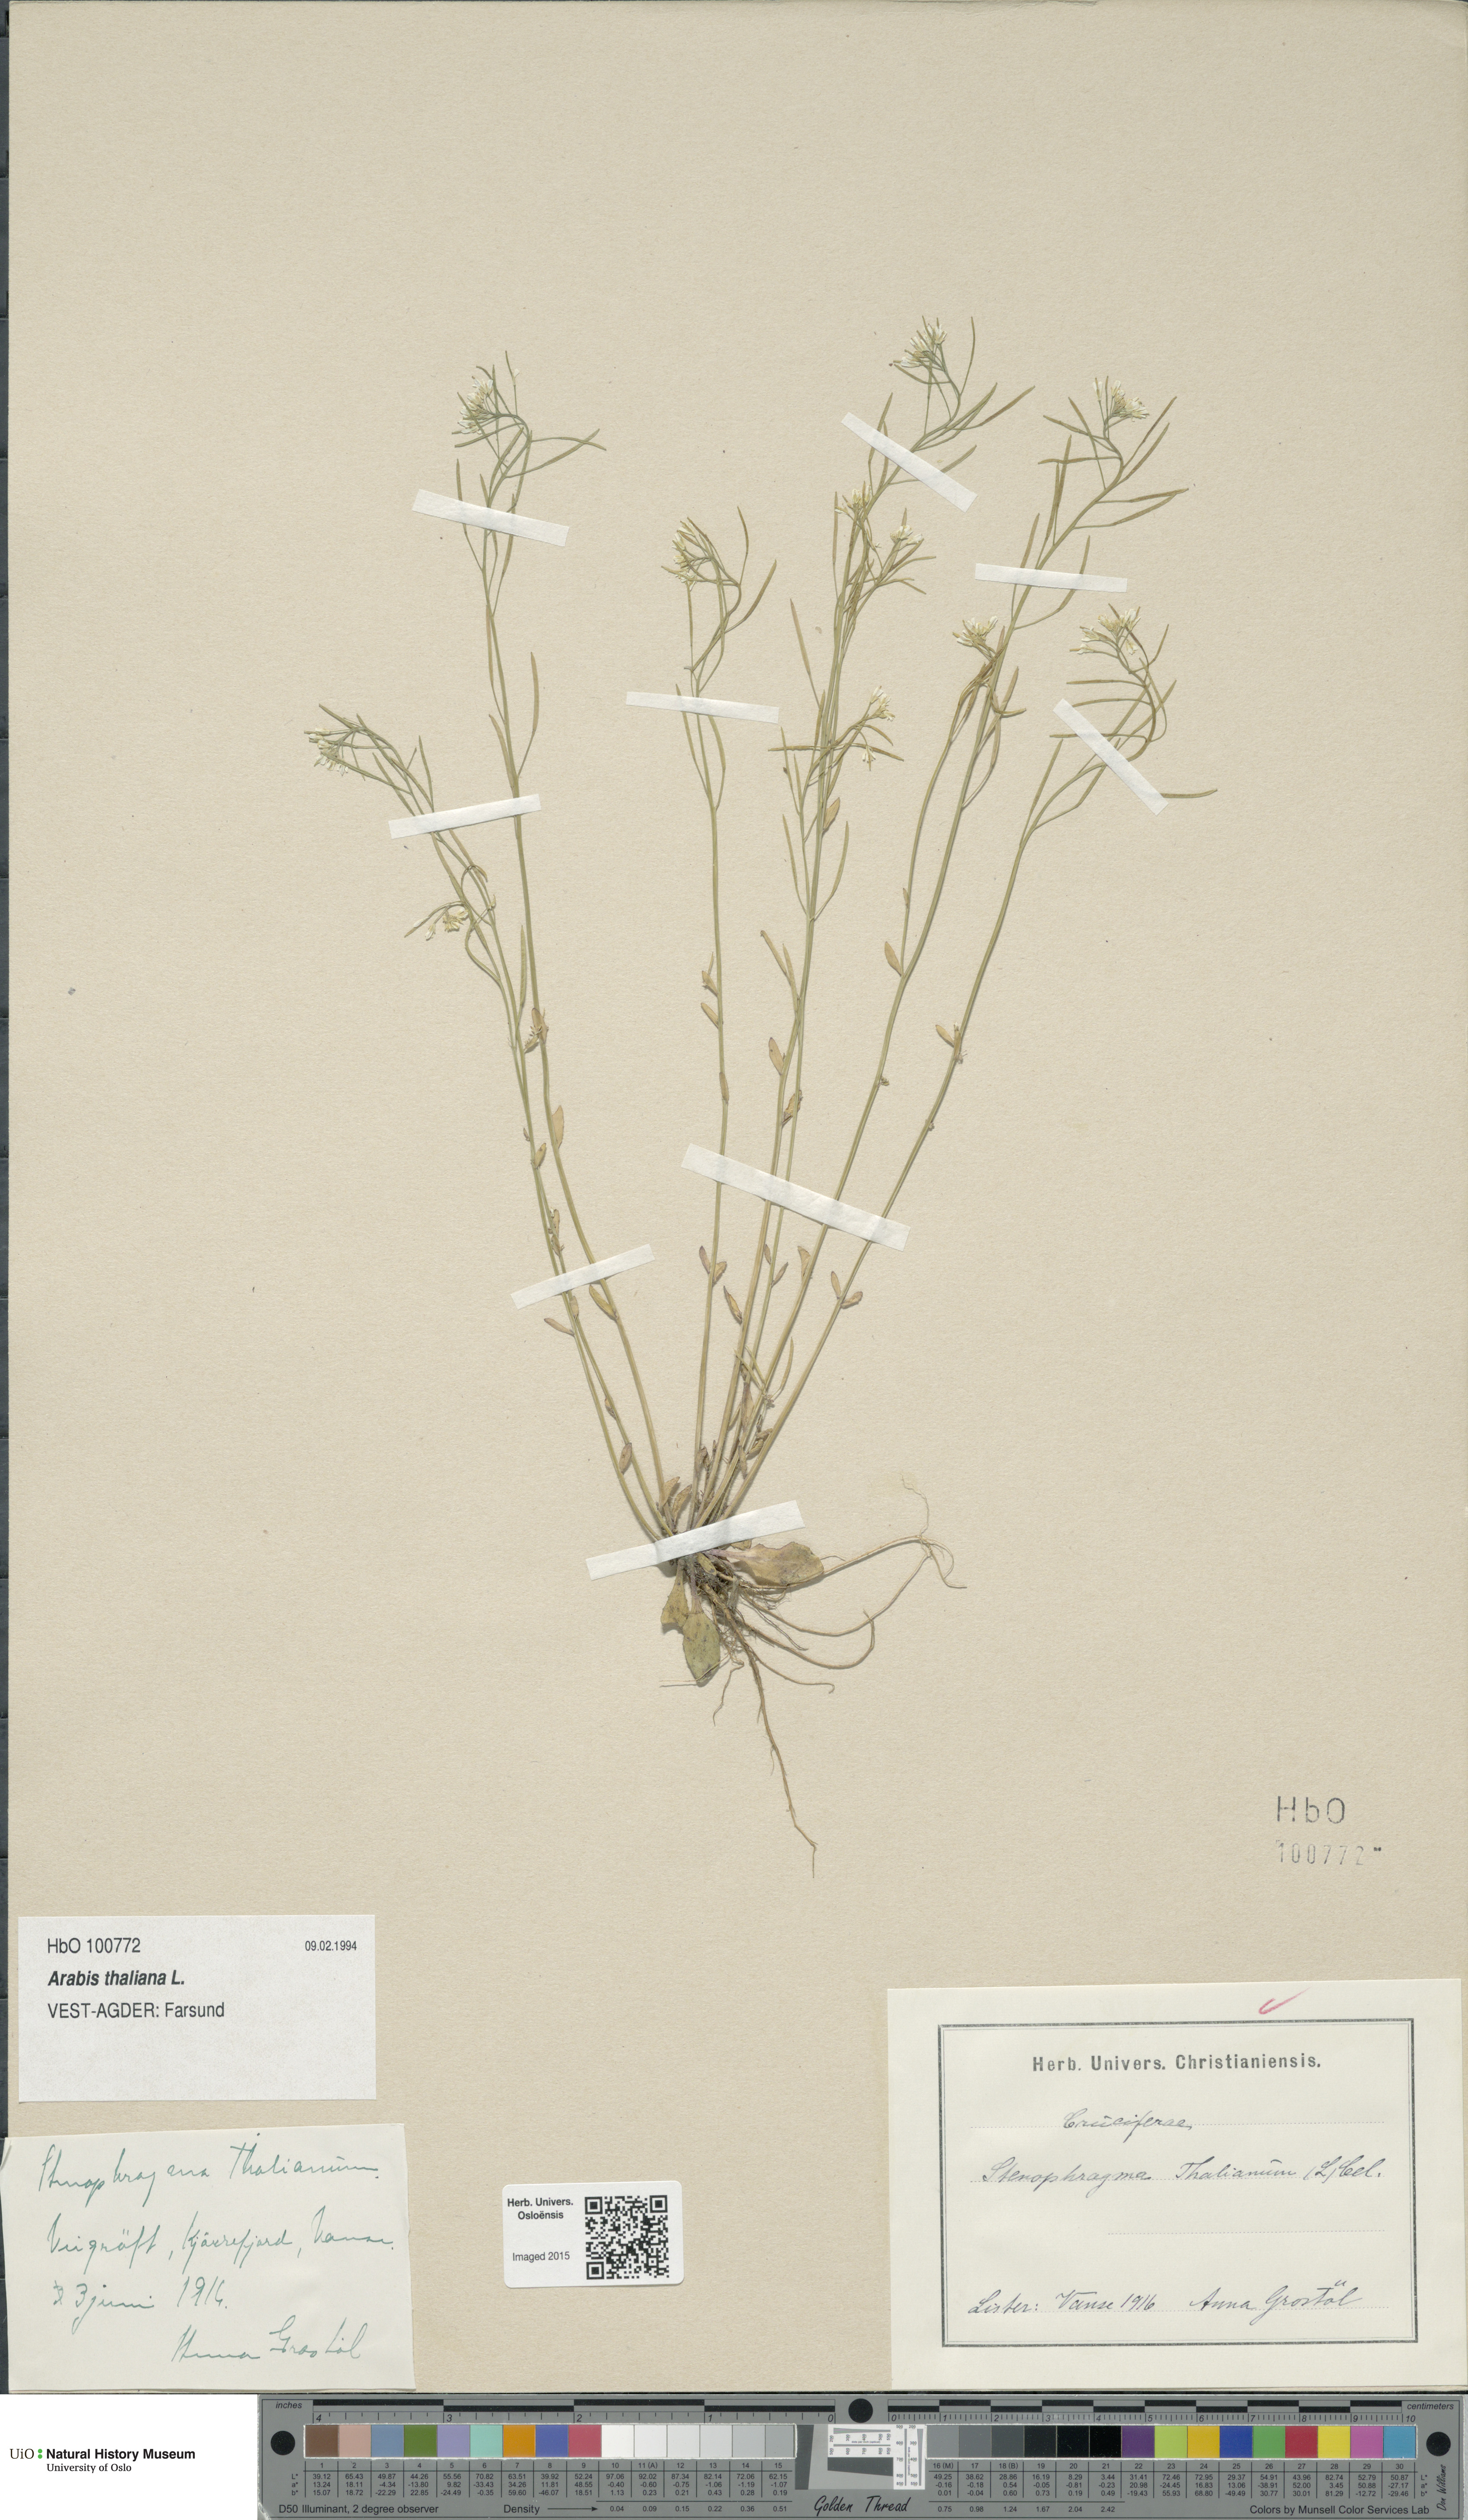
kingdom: Plantae
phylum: Tracheophyta
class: Magnoliopsida
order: Brassicales
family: Brassicaceae
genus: Arabidopsis
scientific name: Arabidopsis thaliana
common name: Thale cress
